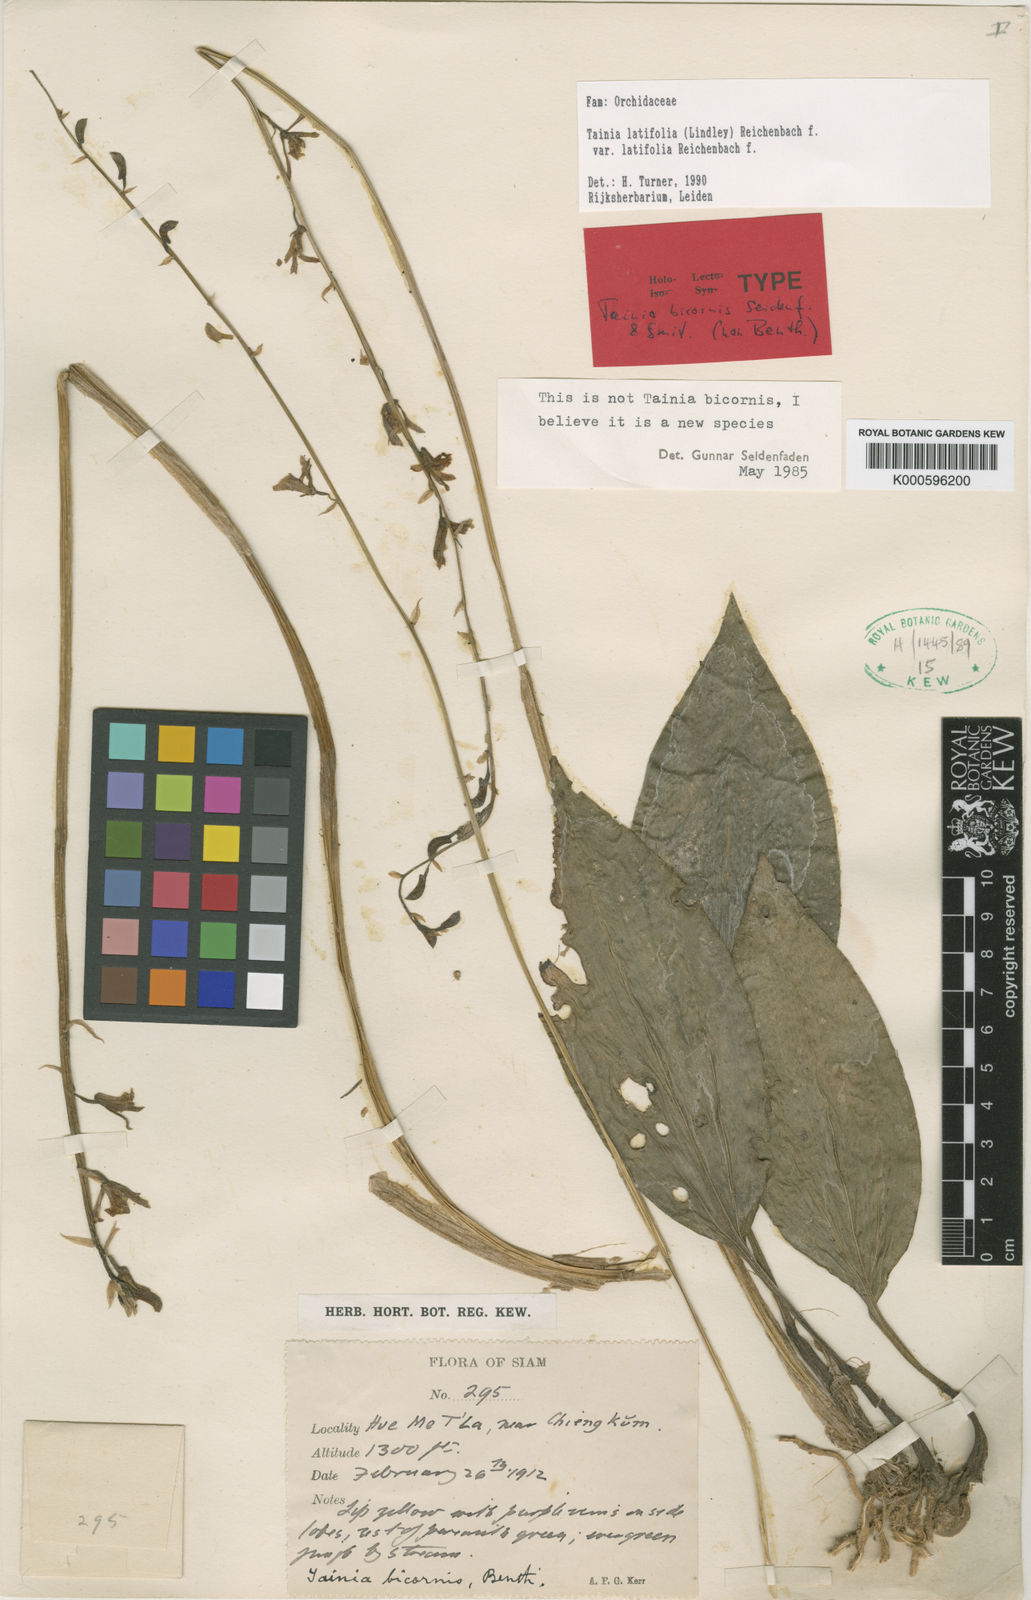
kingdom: Plantae
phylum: Tracheophyta
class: Liliopsida
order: Asparagales
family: Orchidaceae
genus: Tainia
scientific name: Tainia
